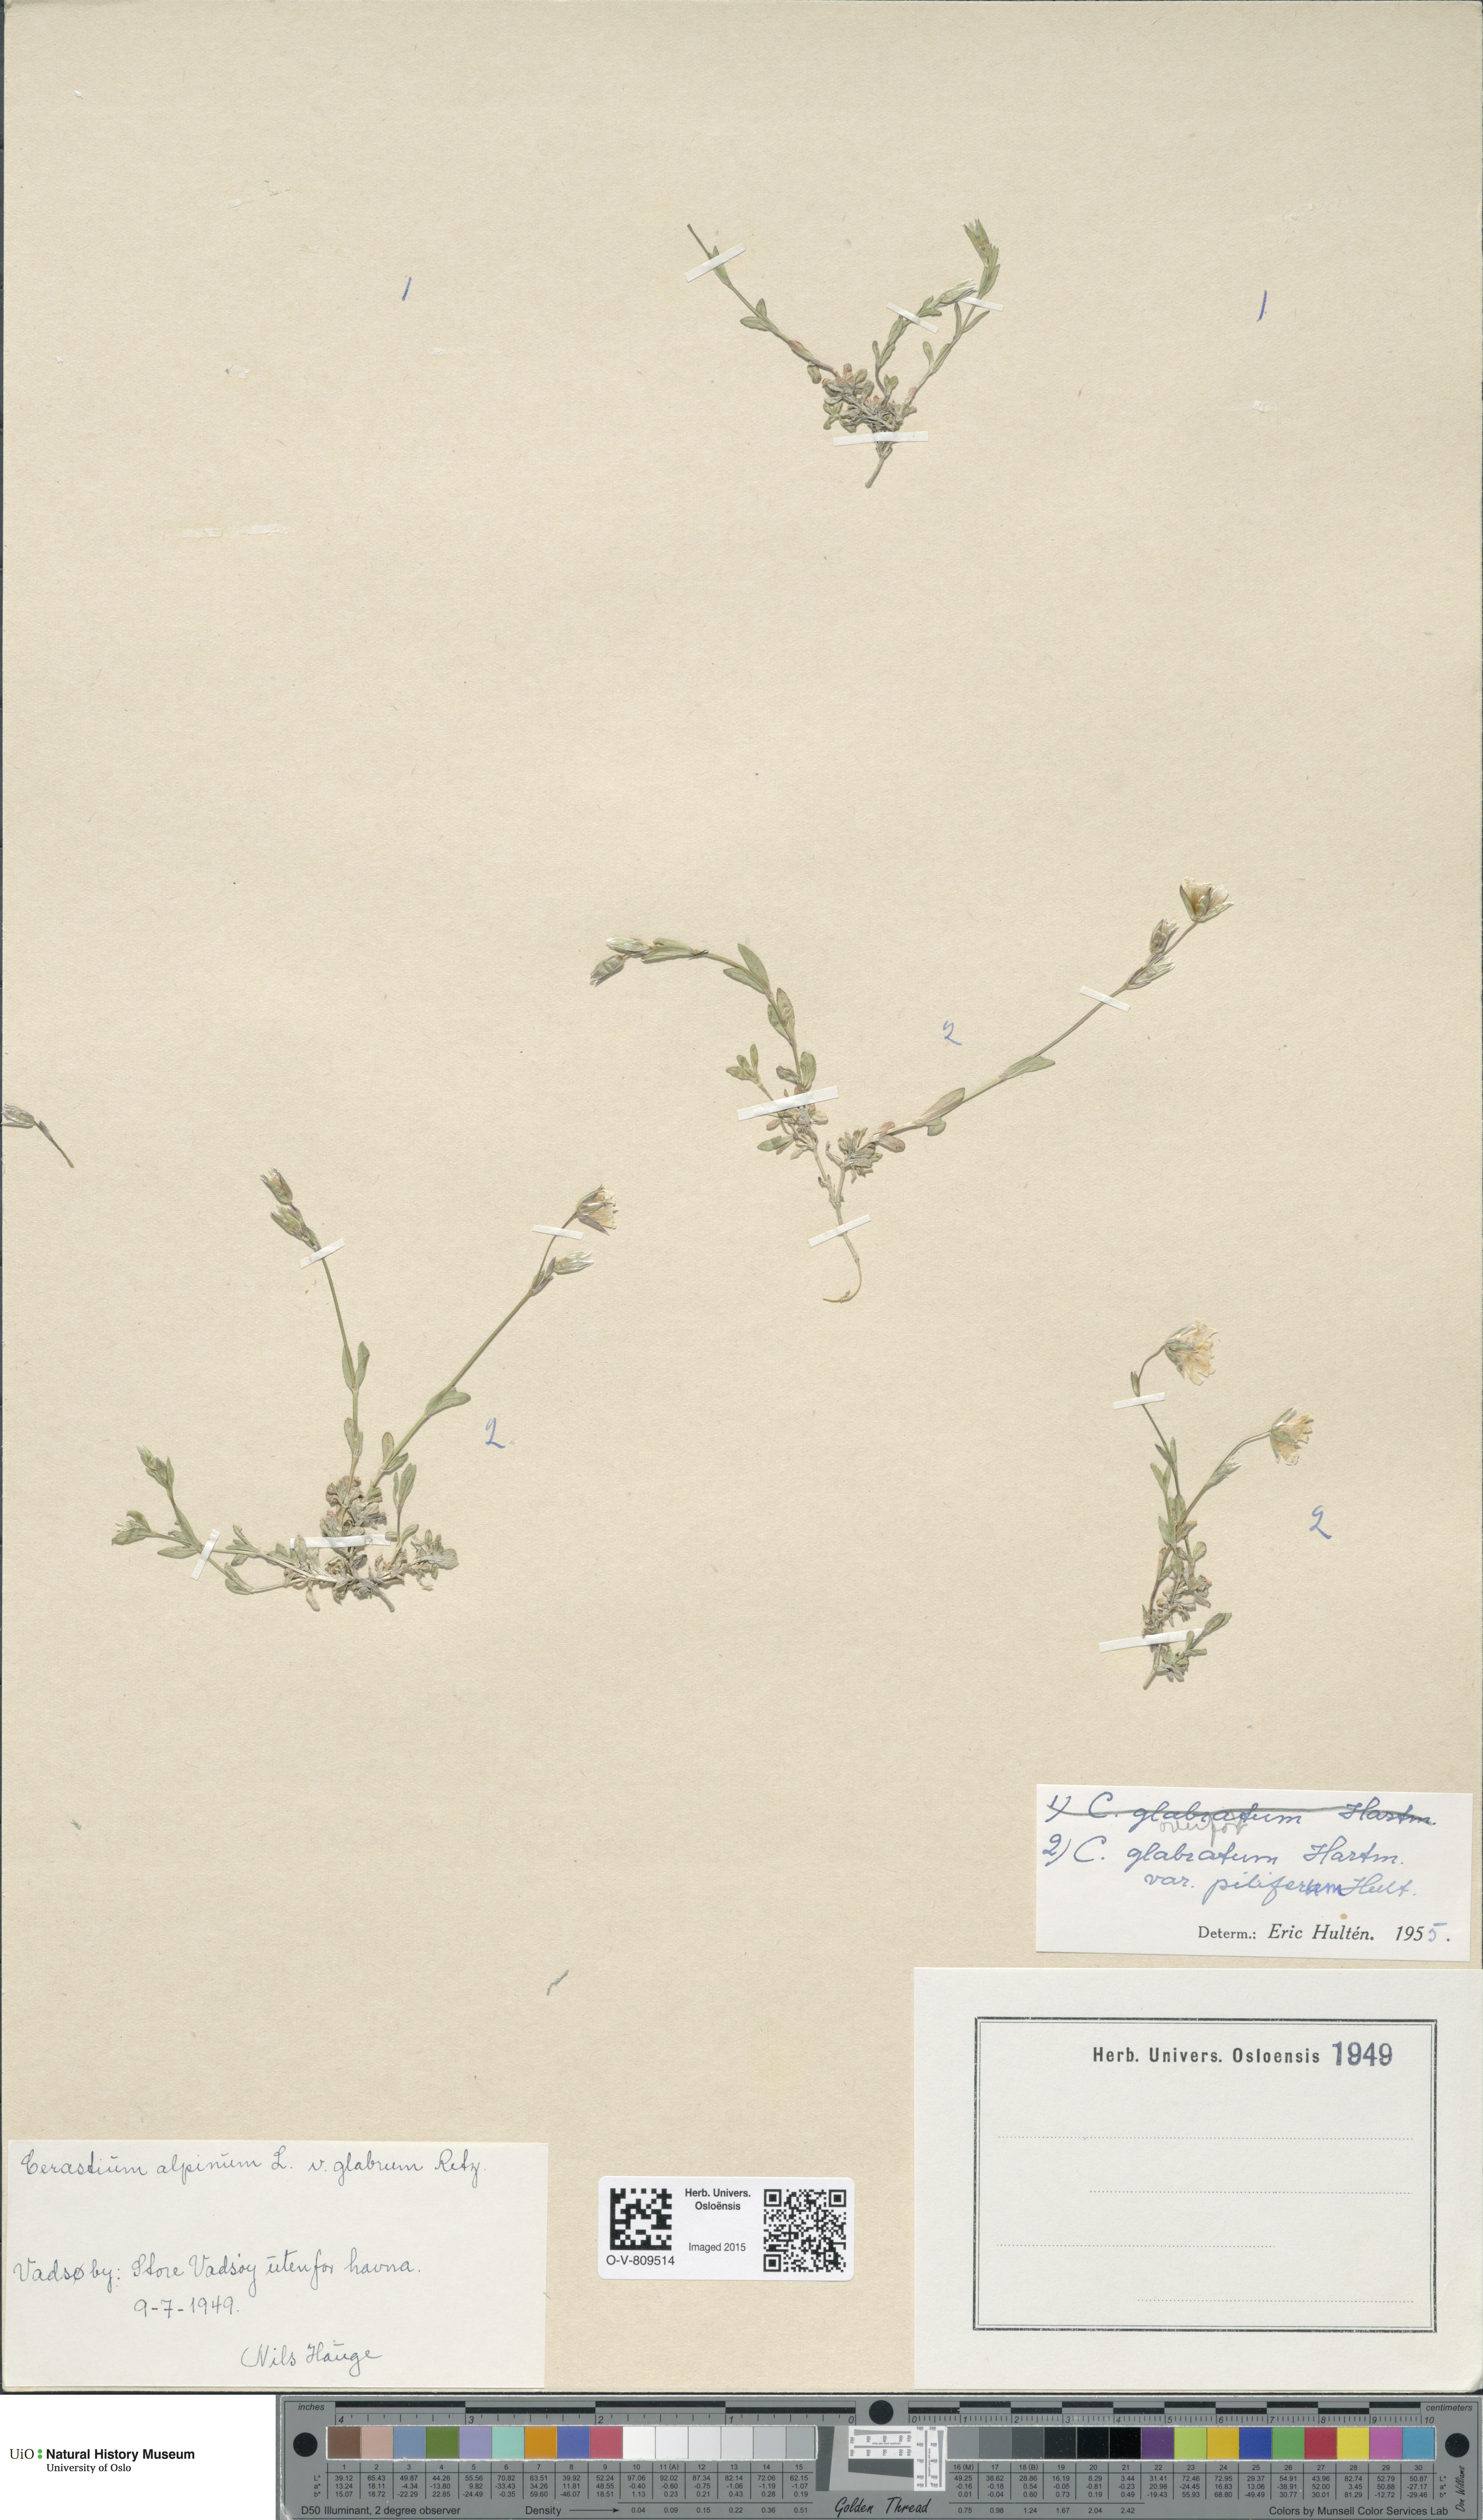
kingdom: Plantae
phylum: Tracheophyta
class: Magnoliopsida
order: Caryophyllales
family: Caryophyllaceae
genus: Cerastium
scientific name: Cerastium alpinum
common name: Alpine mouse-ear
